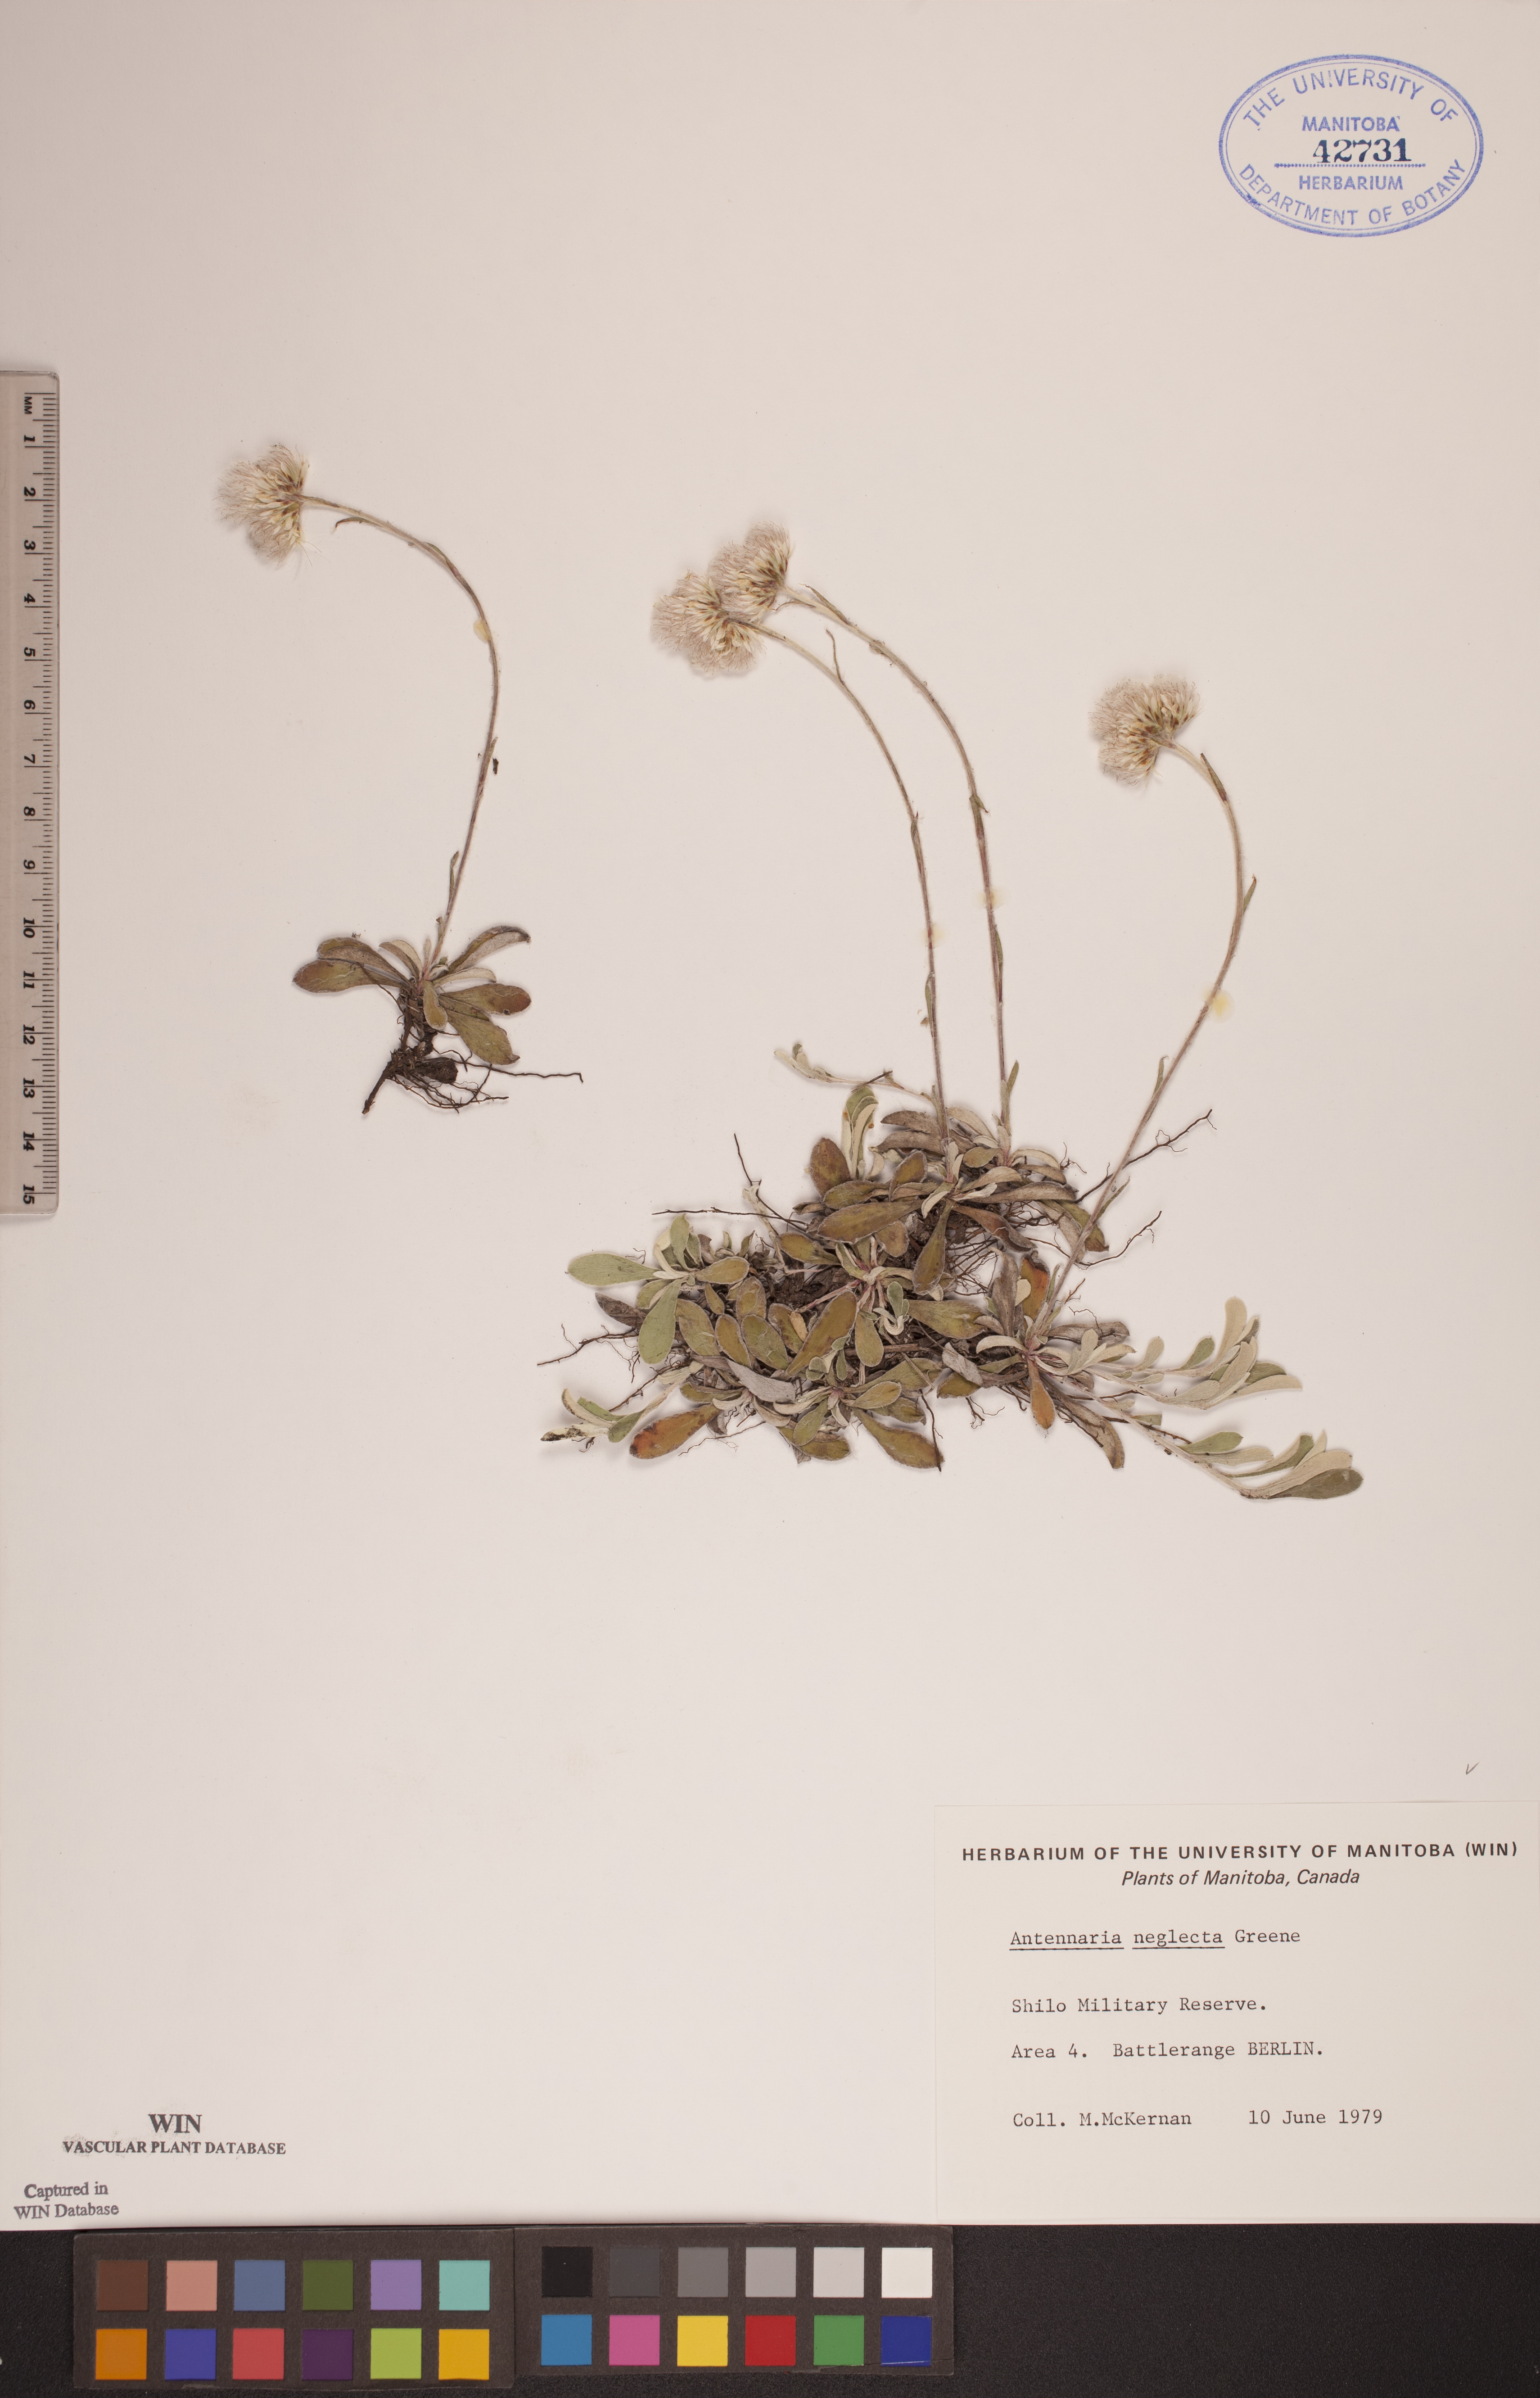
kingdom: Plantae
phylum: Tracheophyta
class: Magnoliopsida
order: Asterales
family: Asteraceae
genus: Antennaria
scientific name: Antennaria neglecta
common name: Field pussytoes
